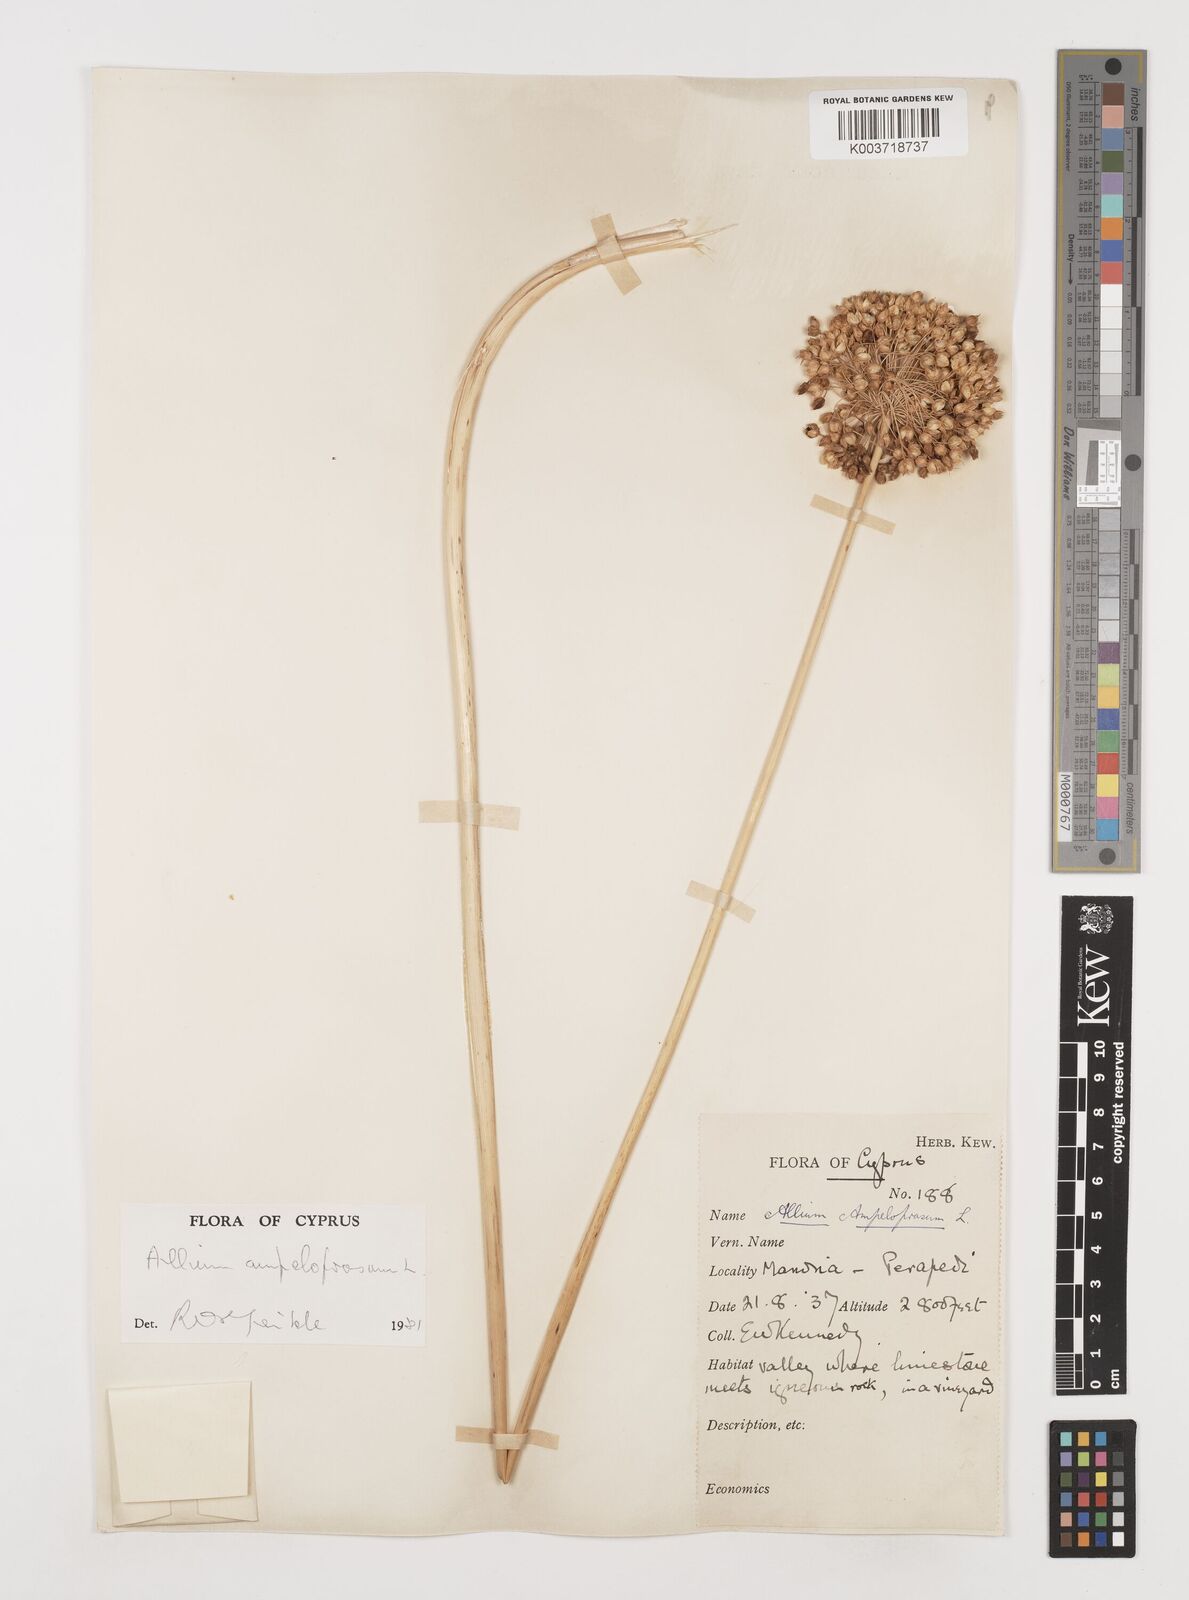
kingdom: Plantae
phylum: Tracheophyta
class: Liliopsida
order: Asparagales
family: Amaryllidaceae
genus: Allium
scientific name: Allium ampeloprasum
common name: Wild leek
